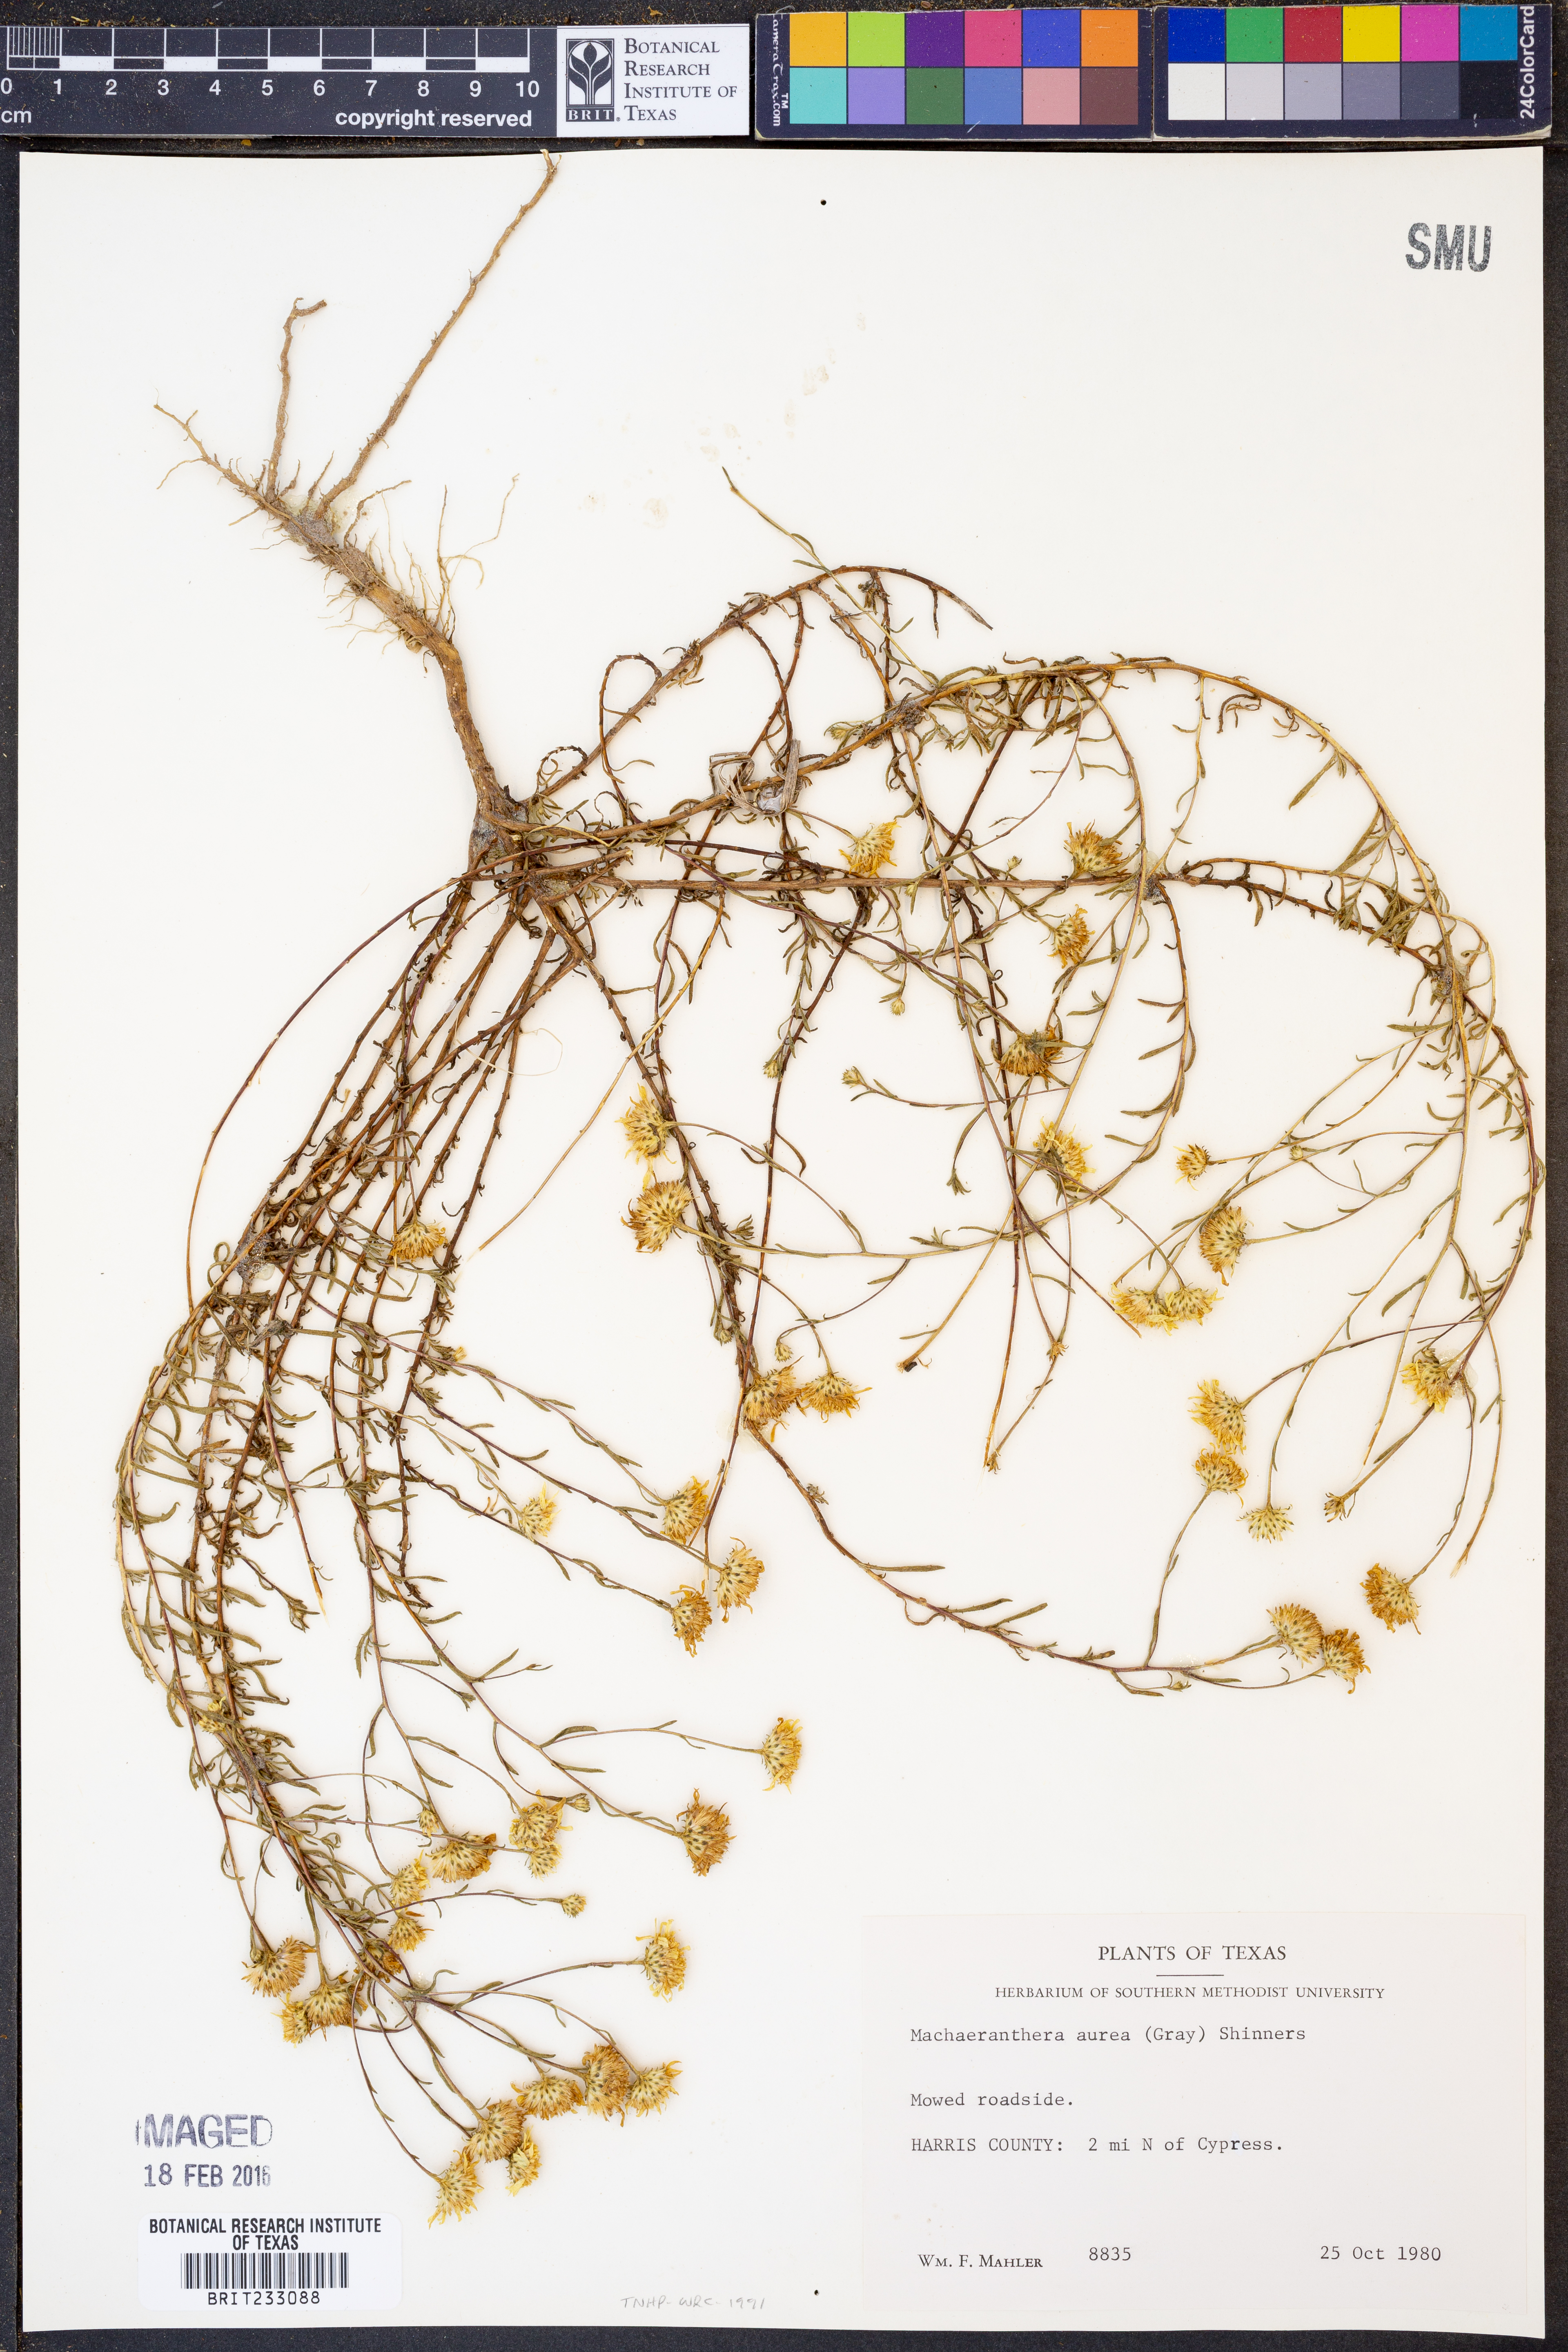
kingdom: Plantae
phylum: Tracheophyta
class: Magnoliopsida
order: Asterales
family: Asteraceae
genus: Rayjacksonia
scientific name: Rayjacksonia aurea
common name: Houston camphor daisy
